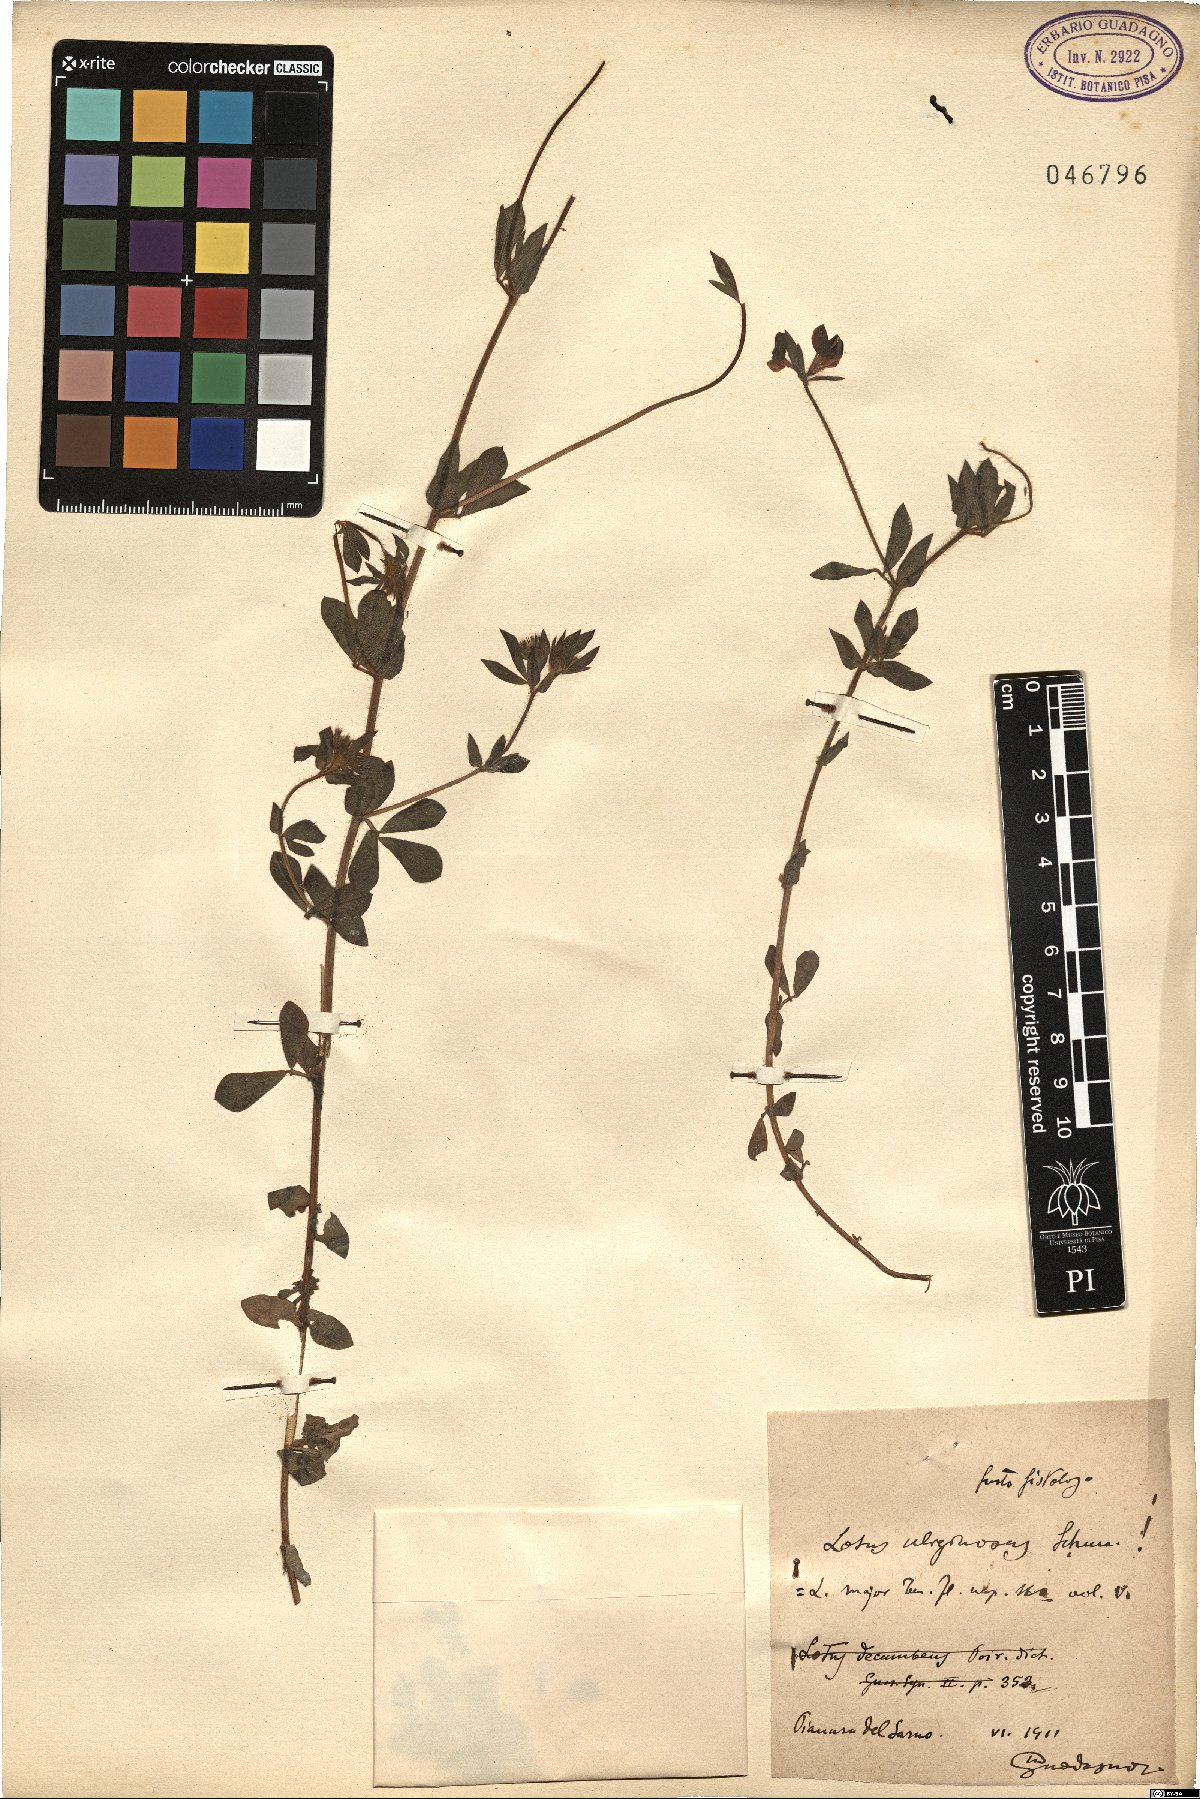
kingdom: Plantae
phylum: Tracheophyta
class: Magnoliopsida
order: Fabales
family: Fabaceae
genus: Lotus
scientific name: Lotus pedunculatus
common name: Greater birdsfoot-trefoil
